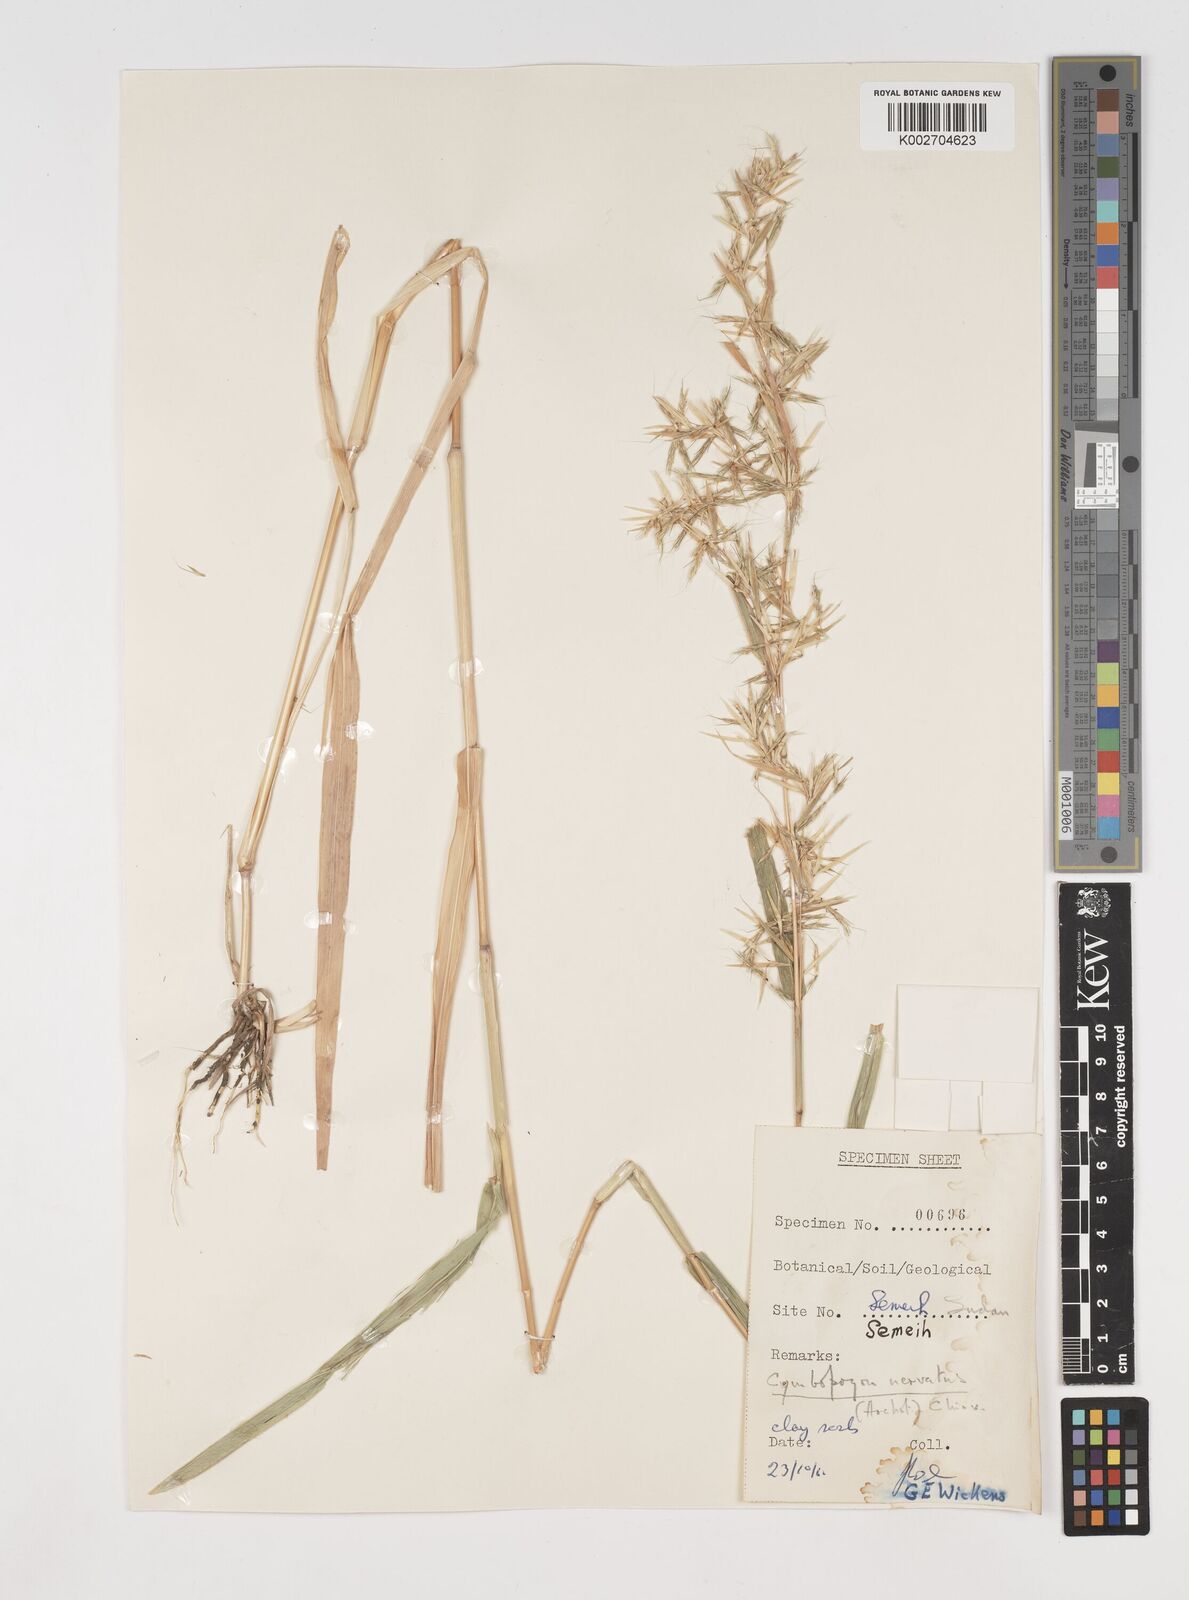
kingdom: Plantae
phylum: Tracheophyta
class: Liliopsida
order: Poales
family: Poaceae
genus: Cymbopogon
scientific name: Cymbopogon nervatus
